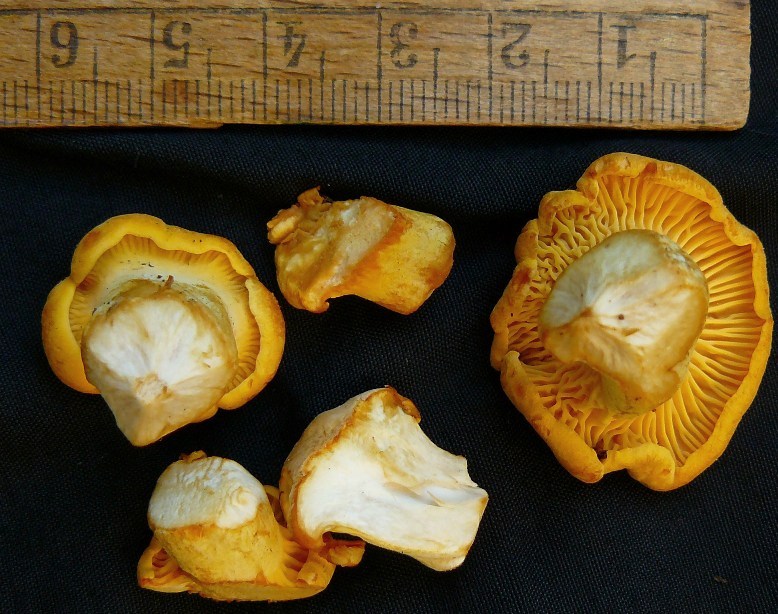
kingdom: Fungi
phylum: Basidiomycota
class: Agaricomycetes
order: Cantharellales
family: Hydnaceae
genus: Cantharellus
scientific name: Cantharellus cibarius
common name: almindelig kantarel
